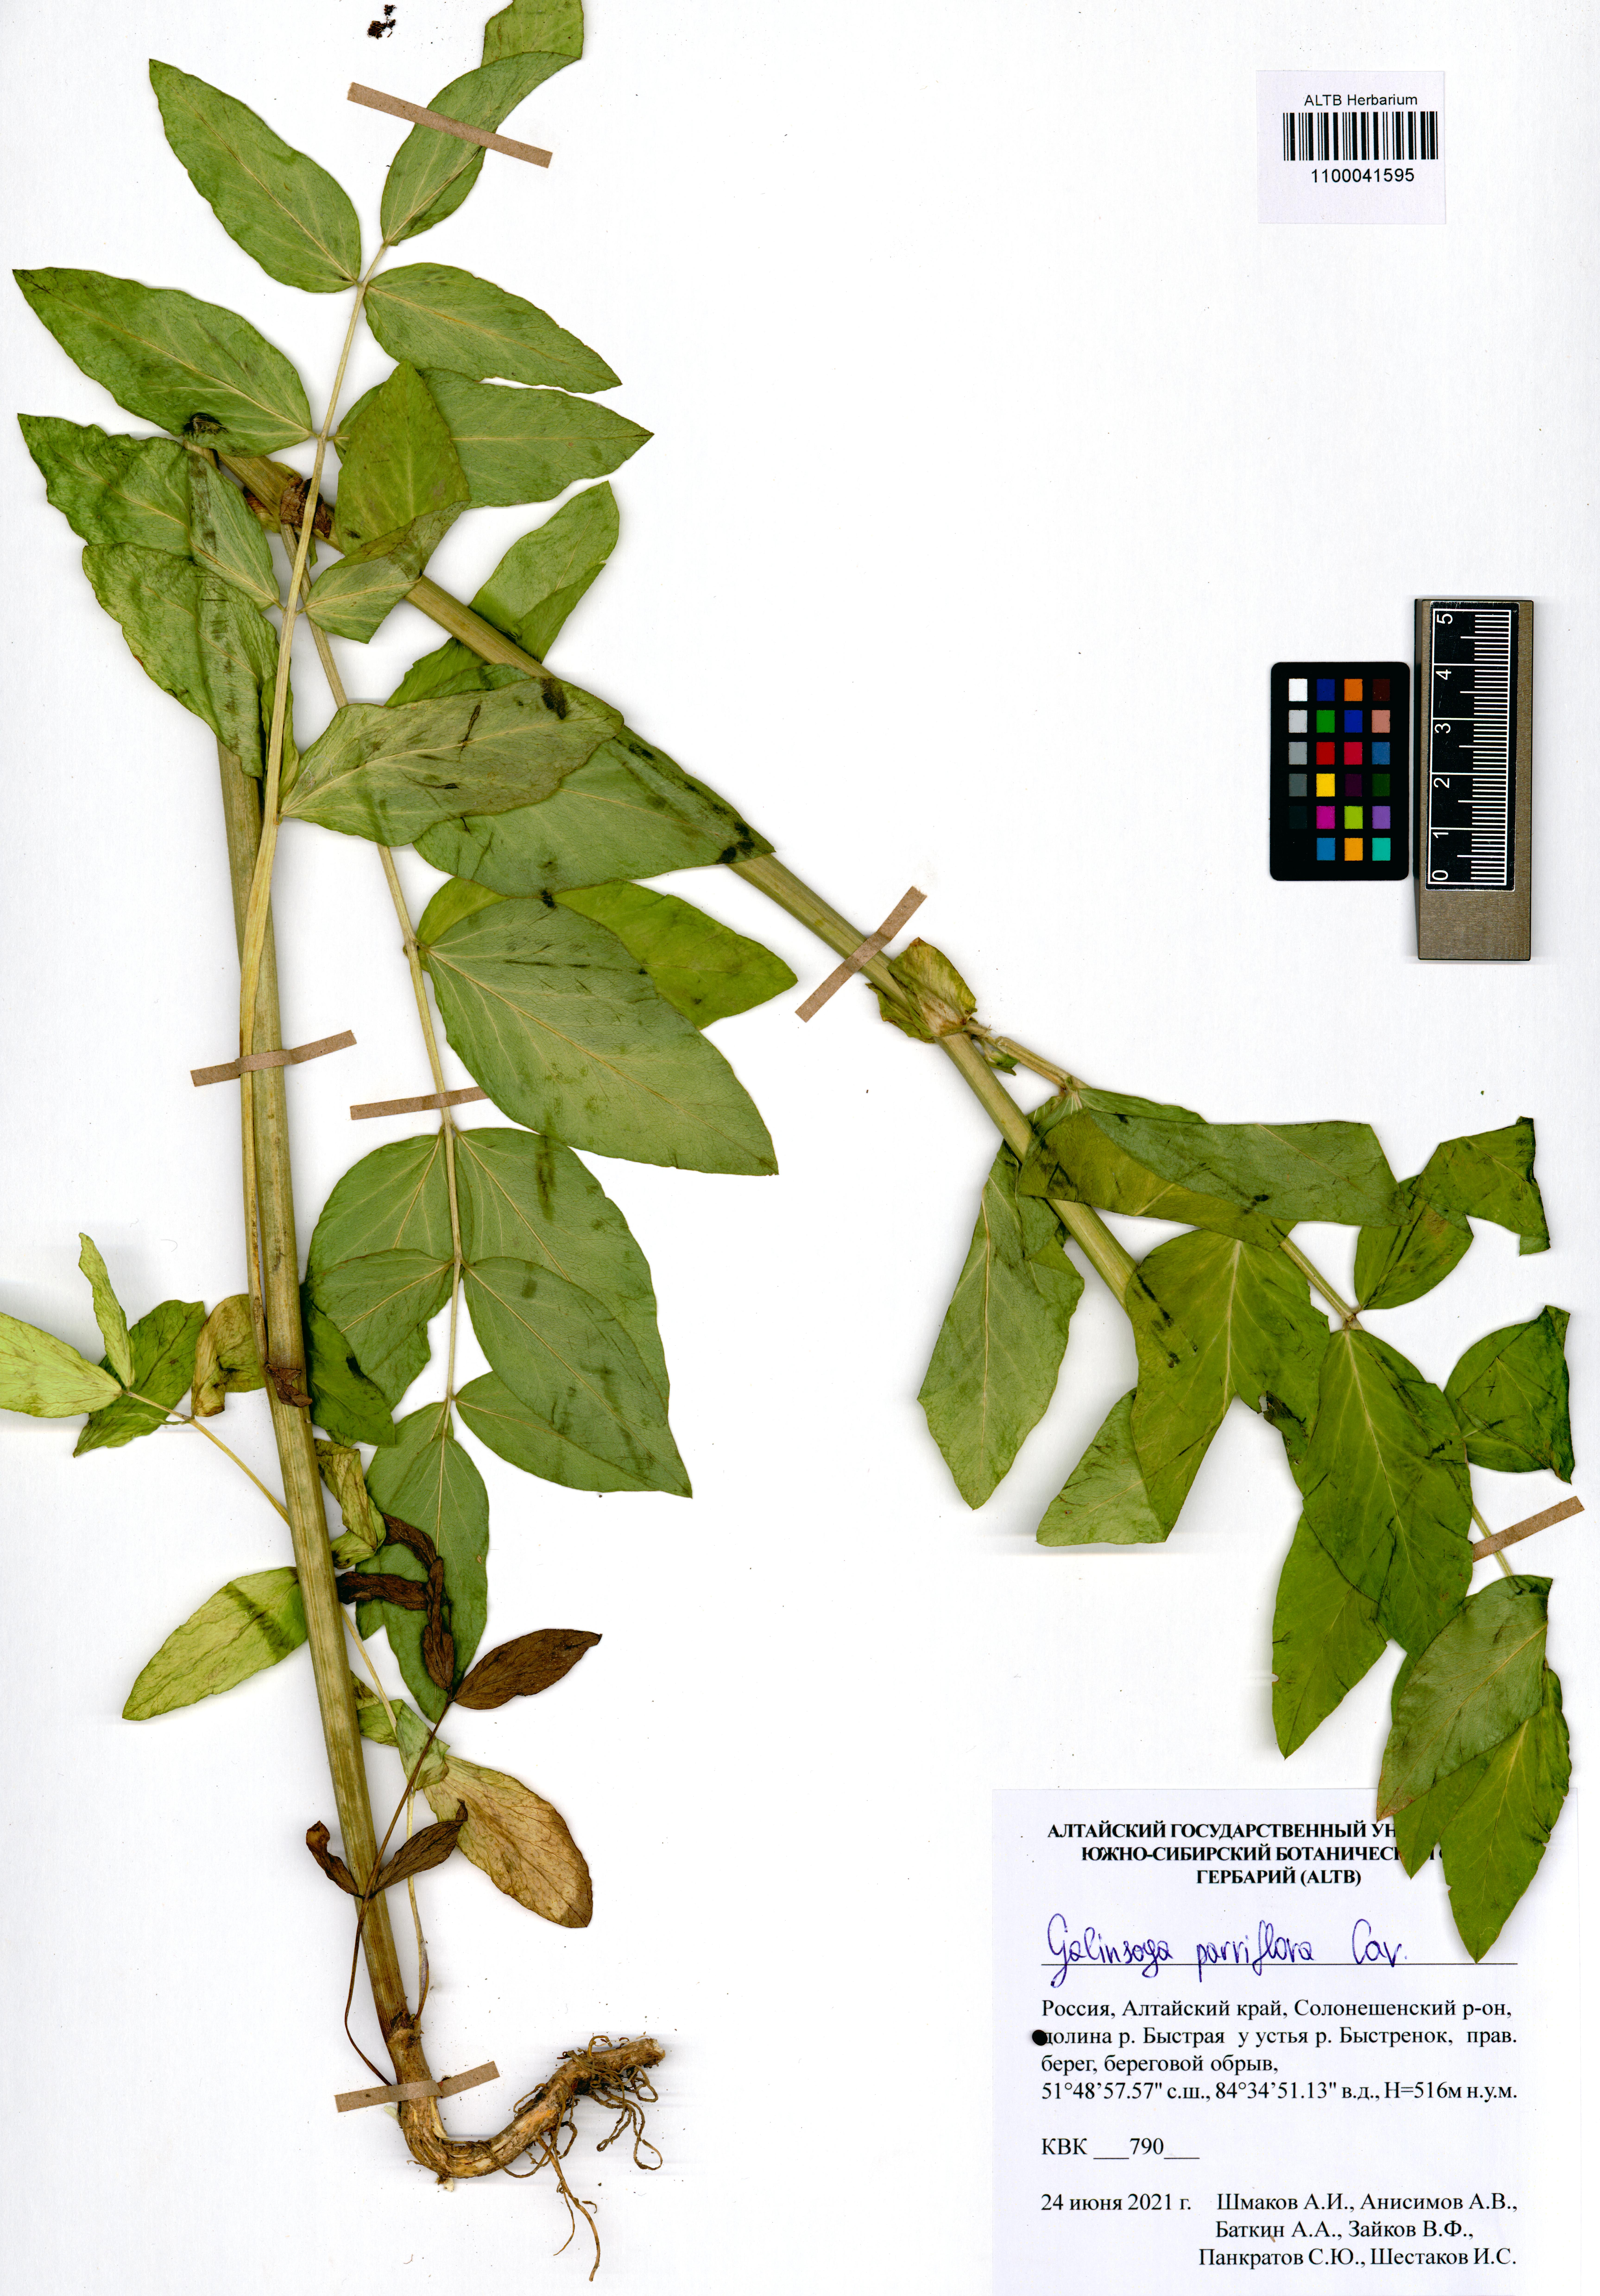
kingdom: Plantae
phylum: Tracheophyta
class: Magnoliopsida
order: Asterales
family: Asteraceae
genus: Galinsoga
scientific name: Galinsoga parviflora
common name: Gallant soldier
